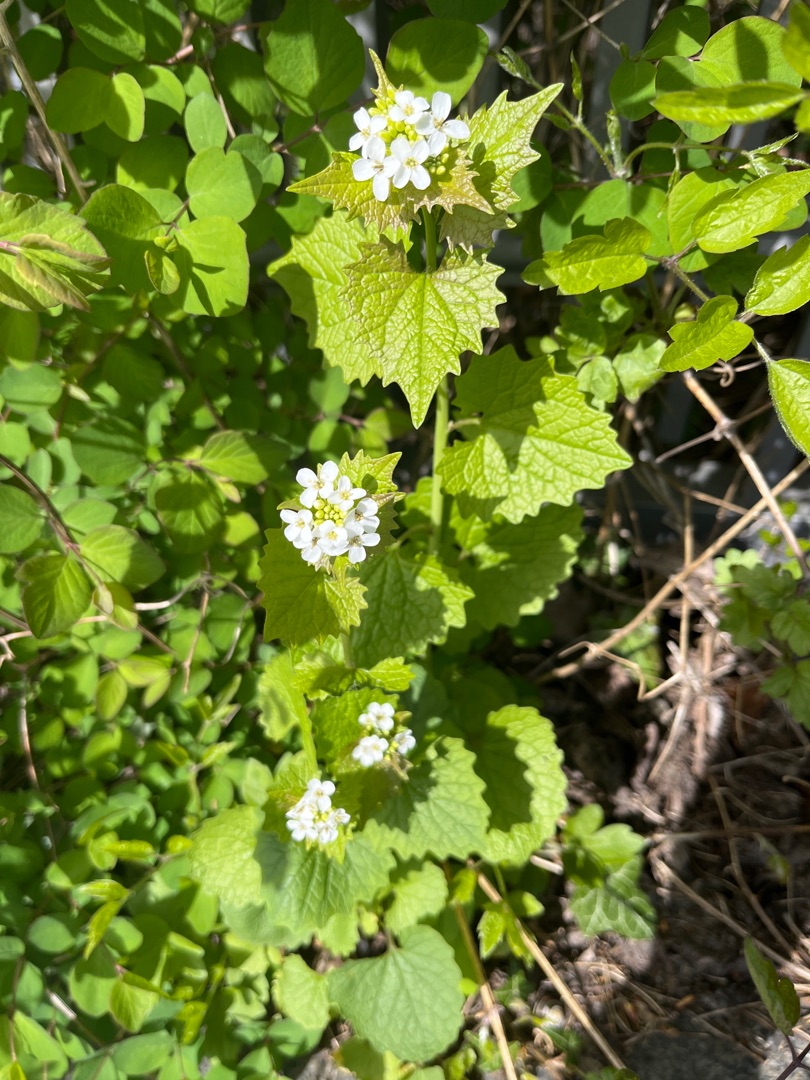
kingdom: Plantae
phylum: Tracheophyta
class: Magnoliopsida
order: Brassicales
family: Brassicaceae
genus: Alliaria
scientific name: Alliaria petiolata
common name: Løgkarse
